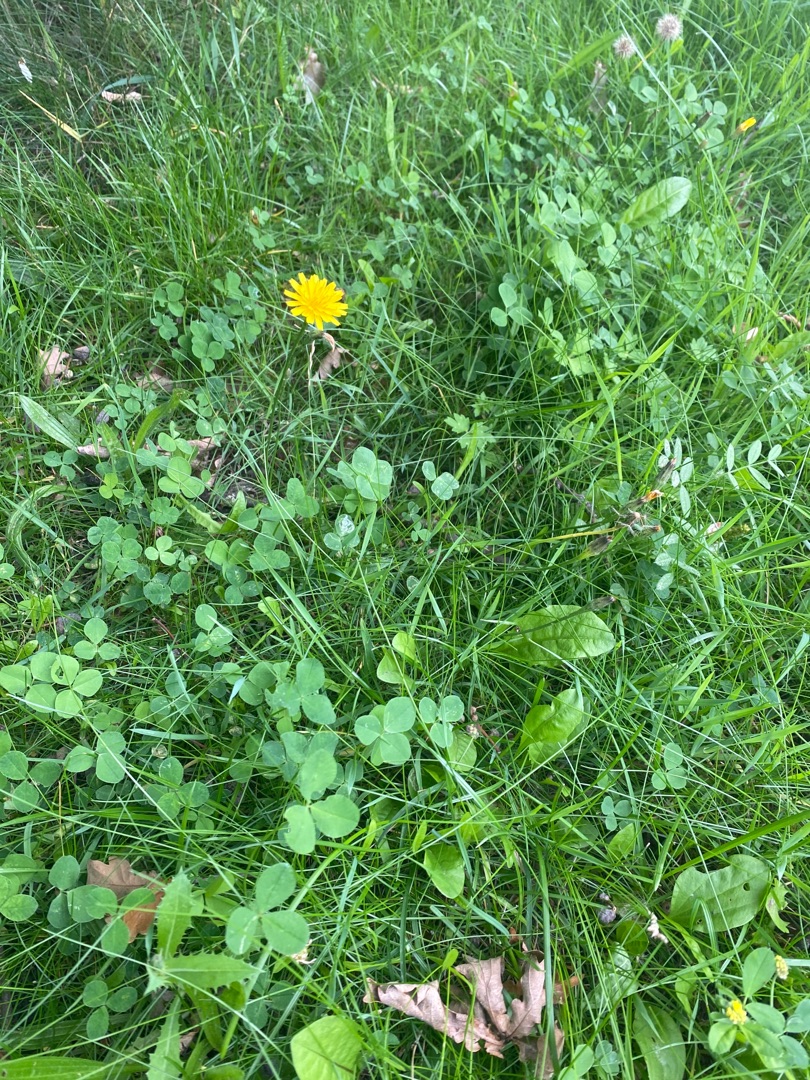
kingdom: Plantae
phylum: Tracheophyta
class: Magnoliopsida
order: Asterales
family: Asteraceae
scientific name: Asteraceae
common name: Kurvblomstfamilien
